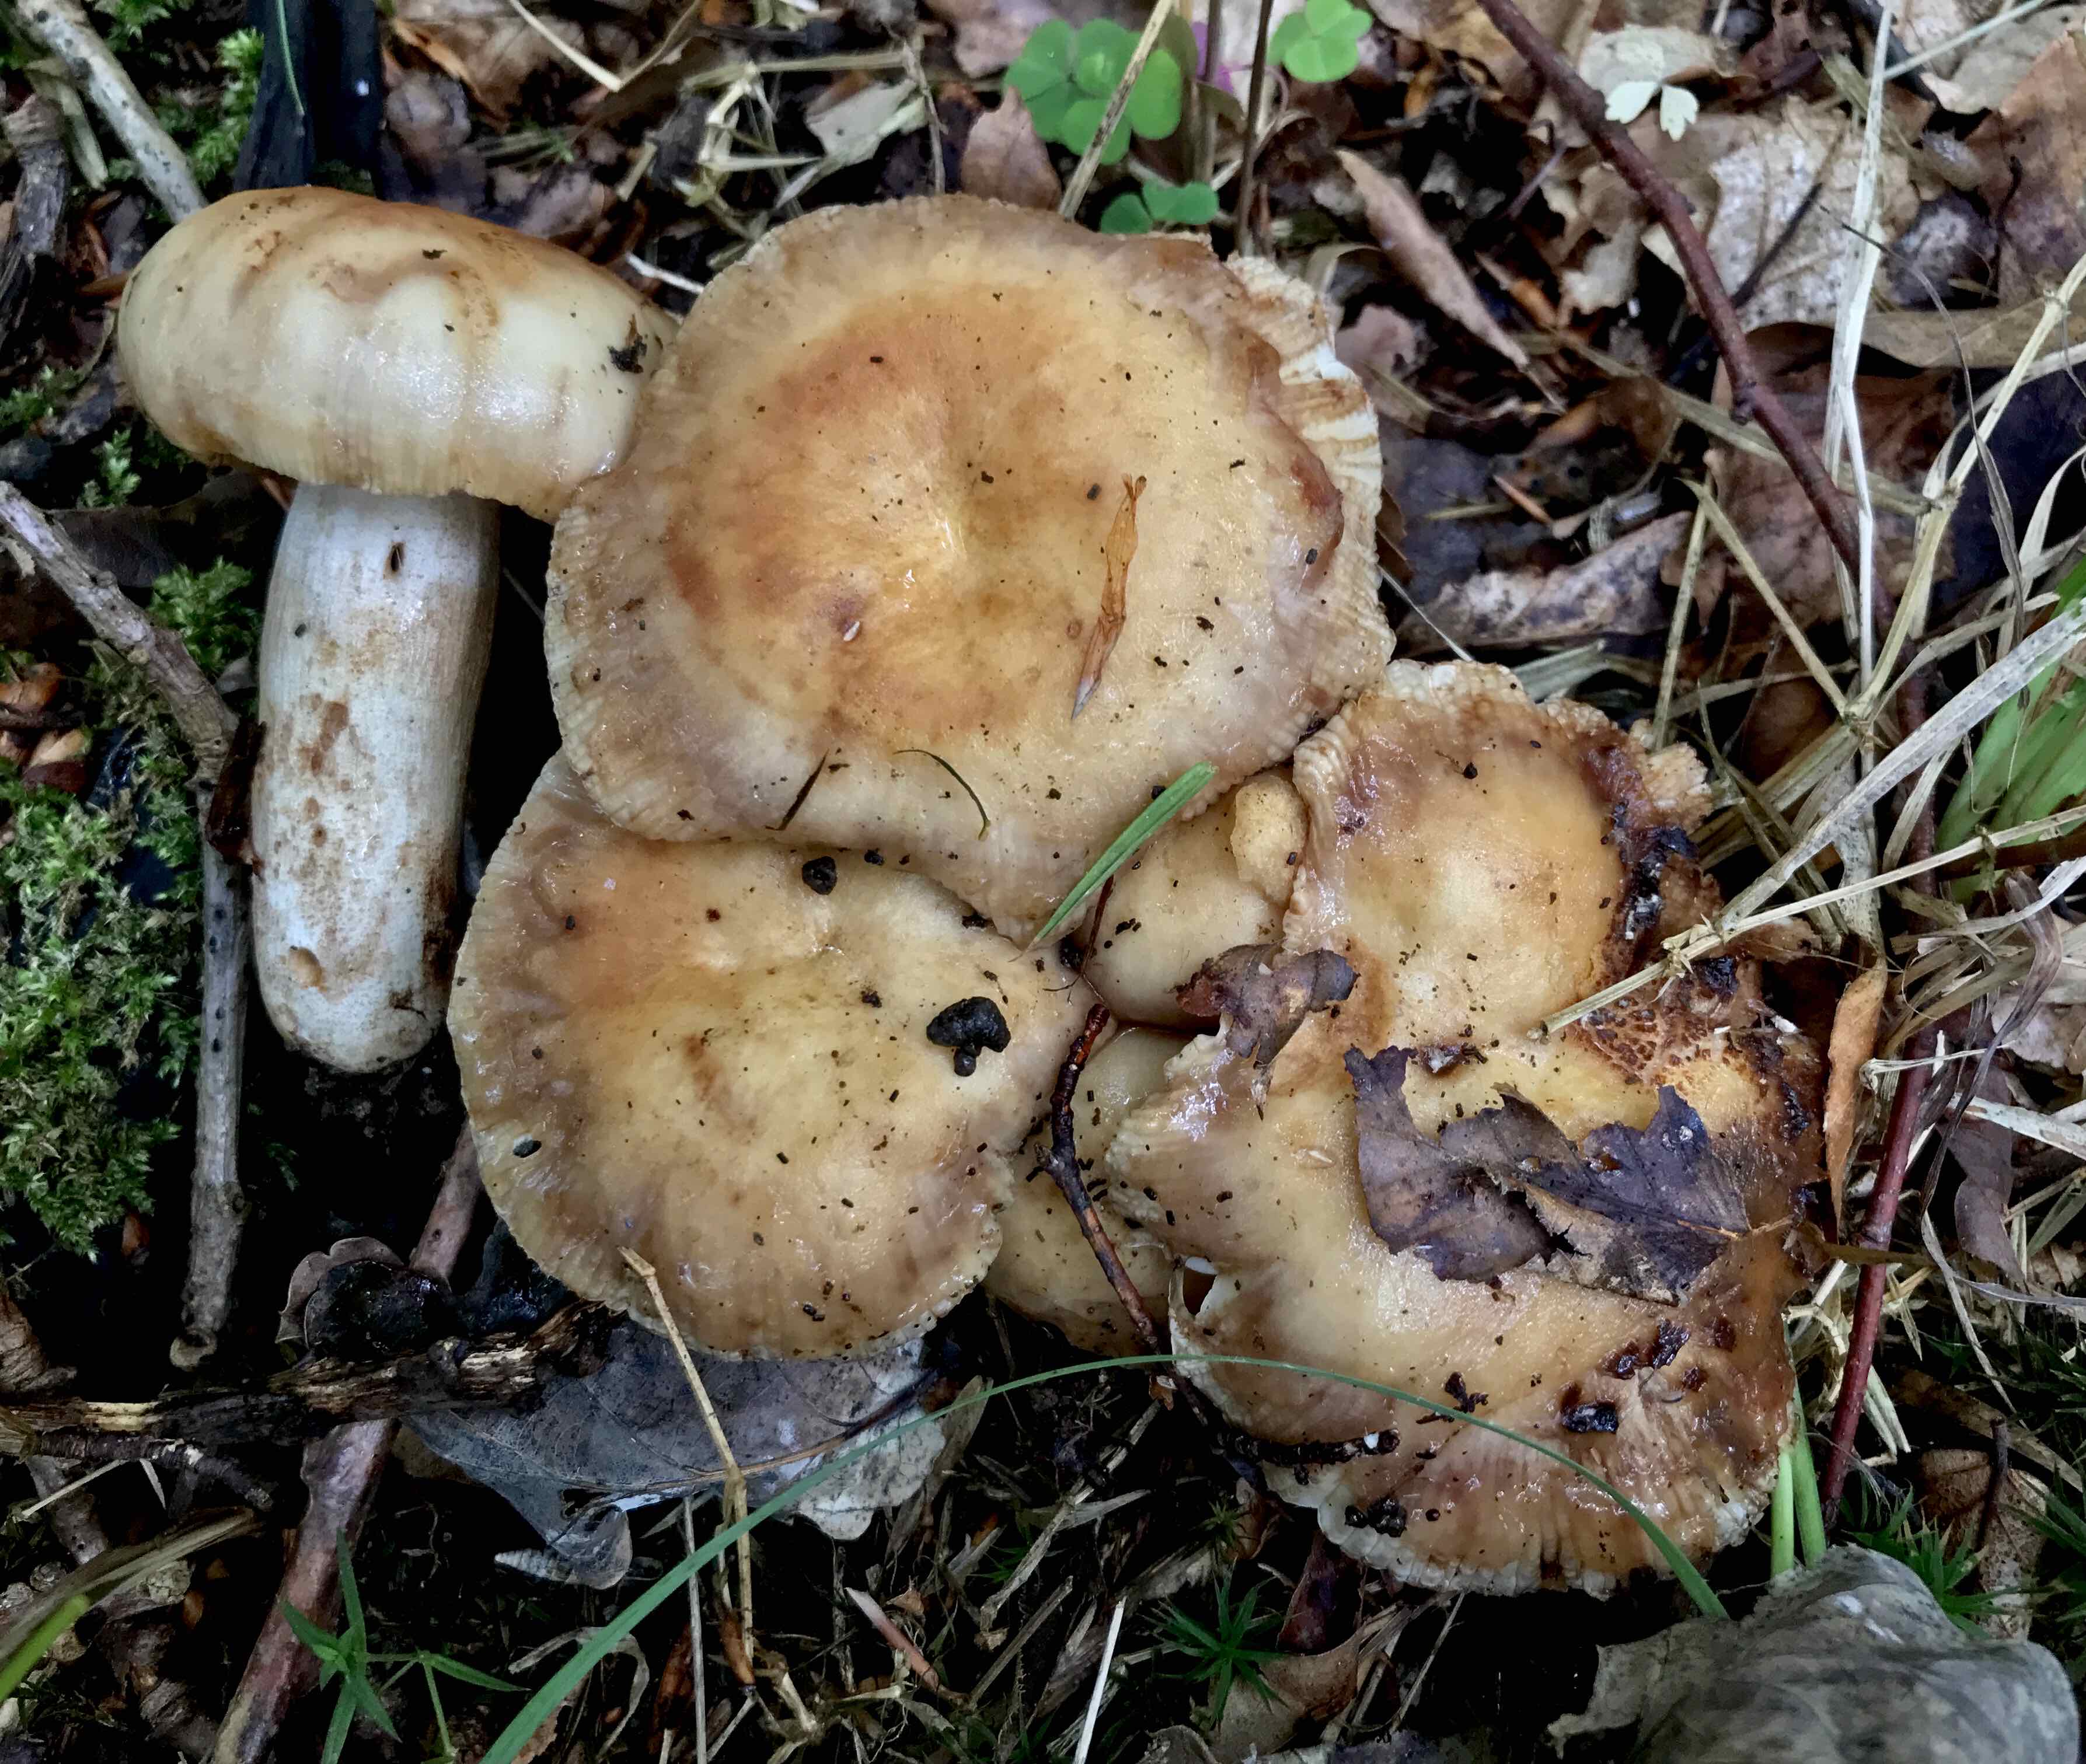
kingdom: Fungi
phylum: Basidiomycota
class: Agaricomycetes
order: Russulales
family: Russulaceae
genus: Russula
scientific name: Russula foetens
